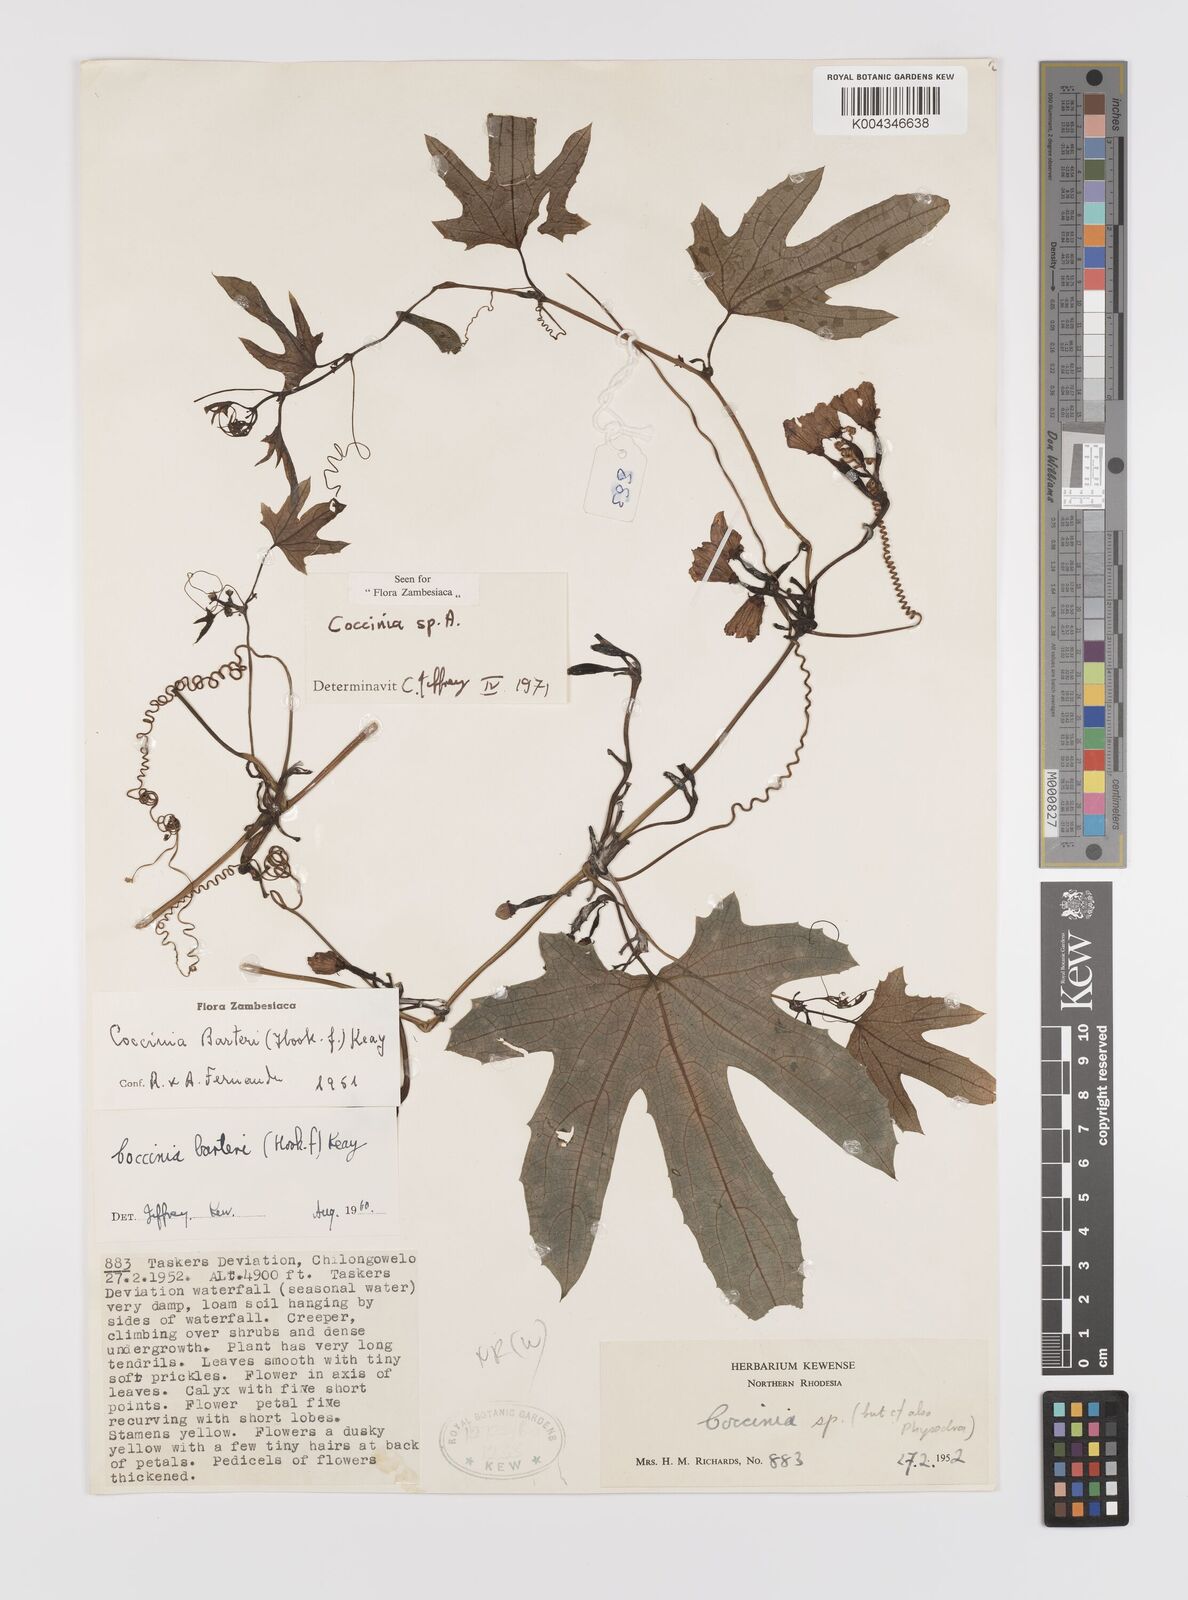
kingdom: Plantae
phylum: Tracheophyta
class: Magnoliopsida
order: Cucurbitales
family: Cucurbitaceae
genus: Coccinia
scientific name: Coccinia
